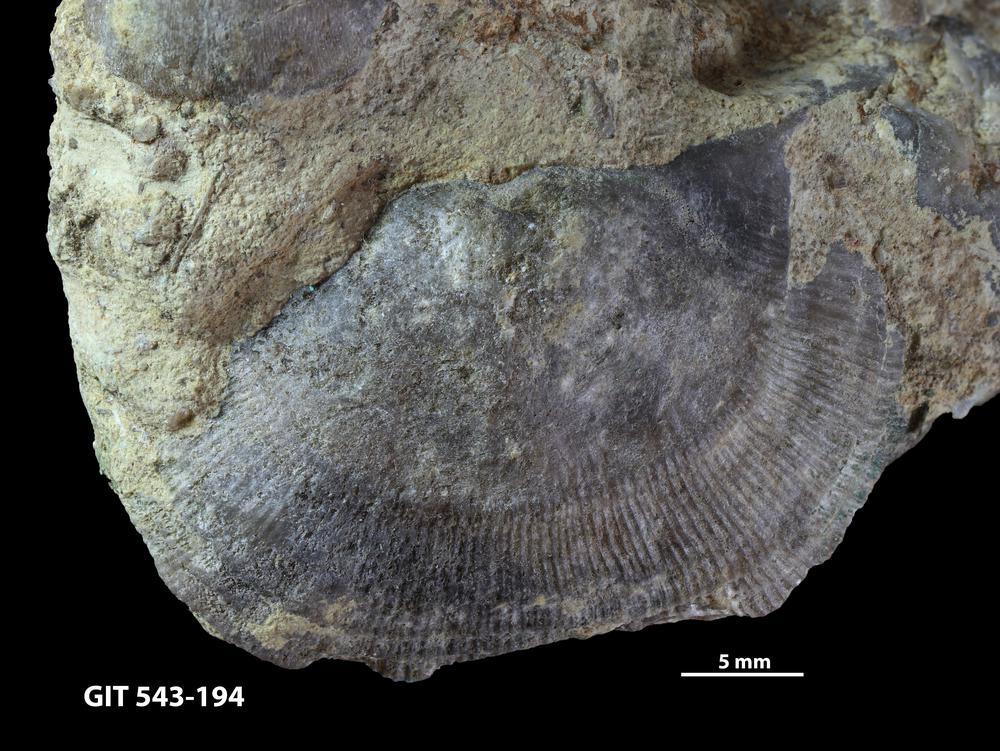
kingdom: Animalia
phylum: Brachiopoda
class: Rhynchonellata
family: Clitambonitidae
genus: Clinambon
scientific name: Clinambon anomalus
